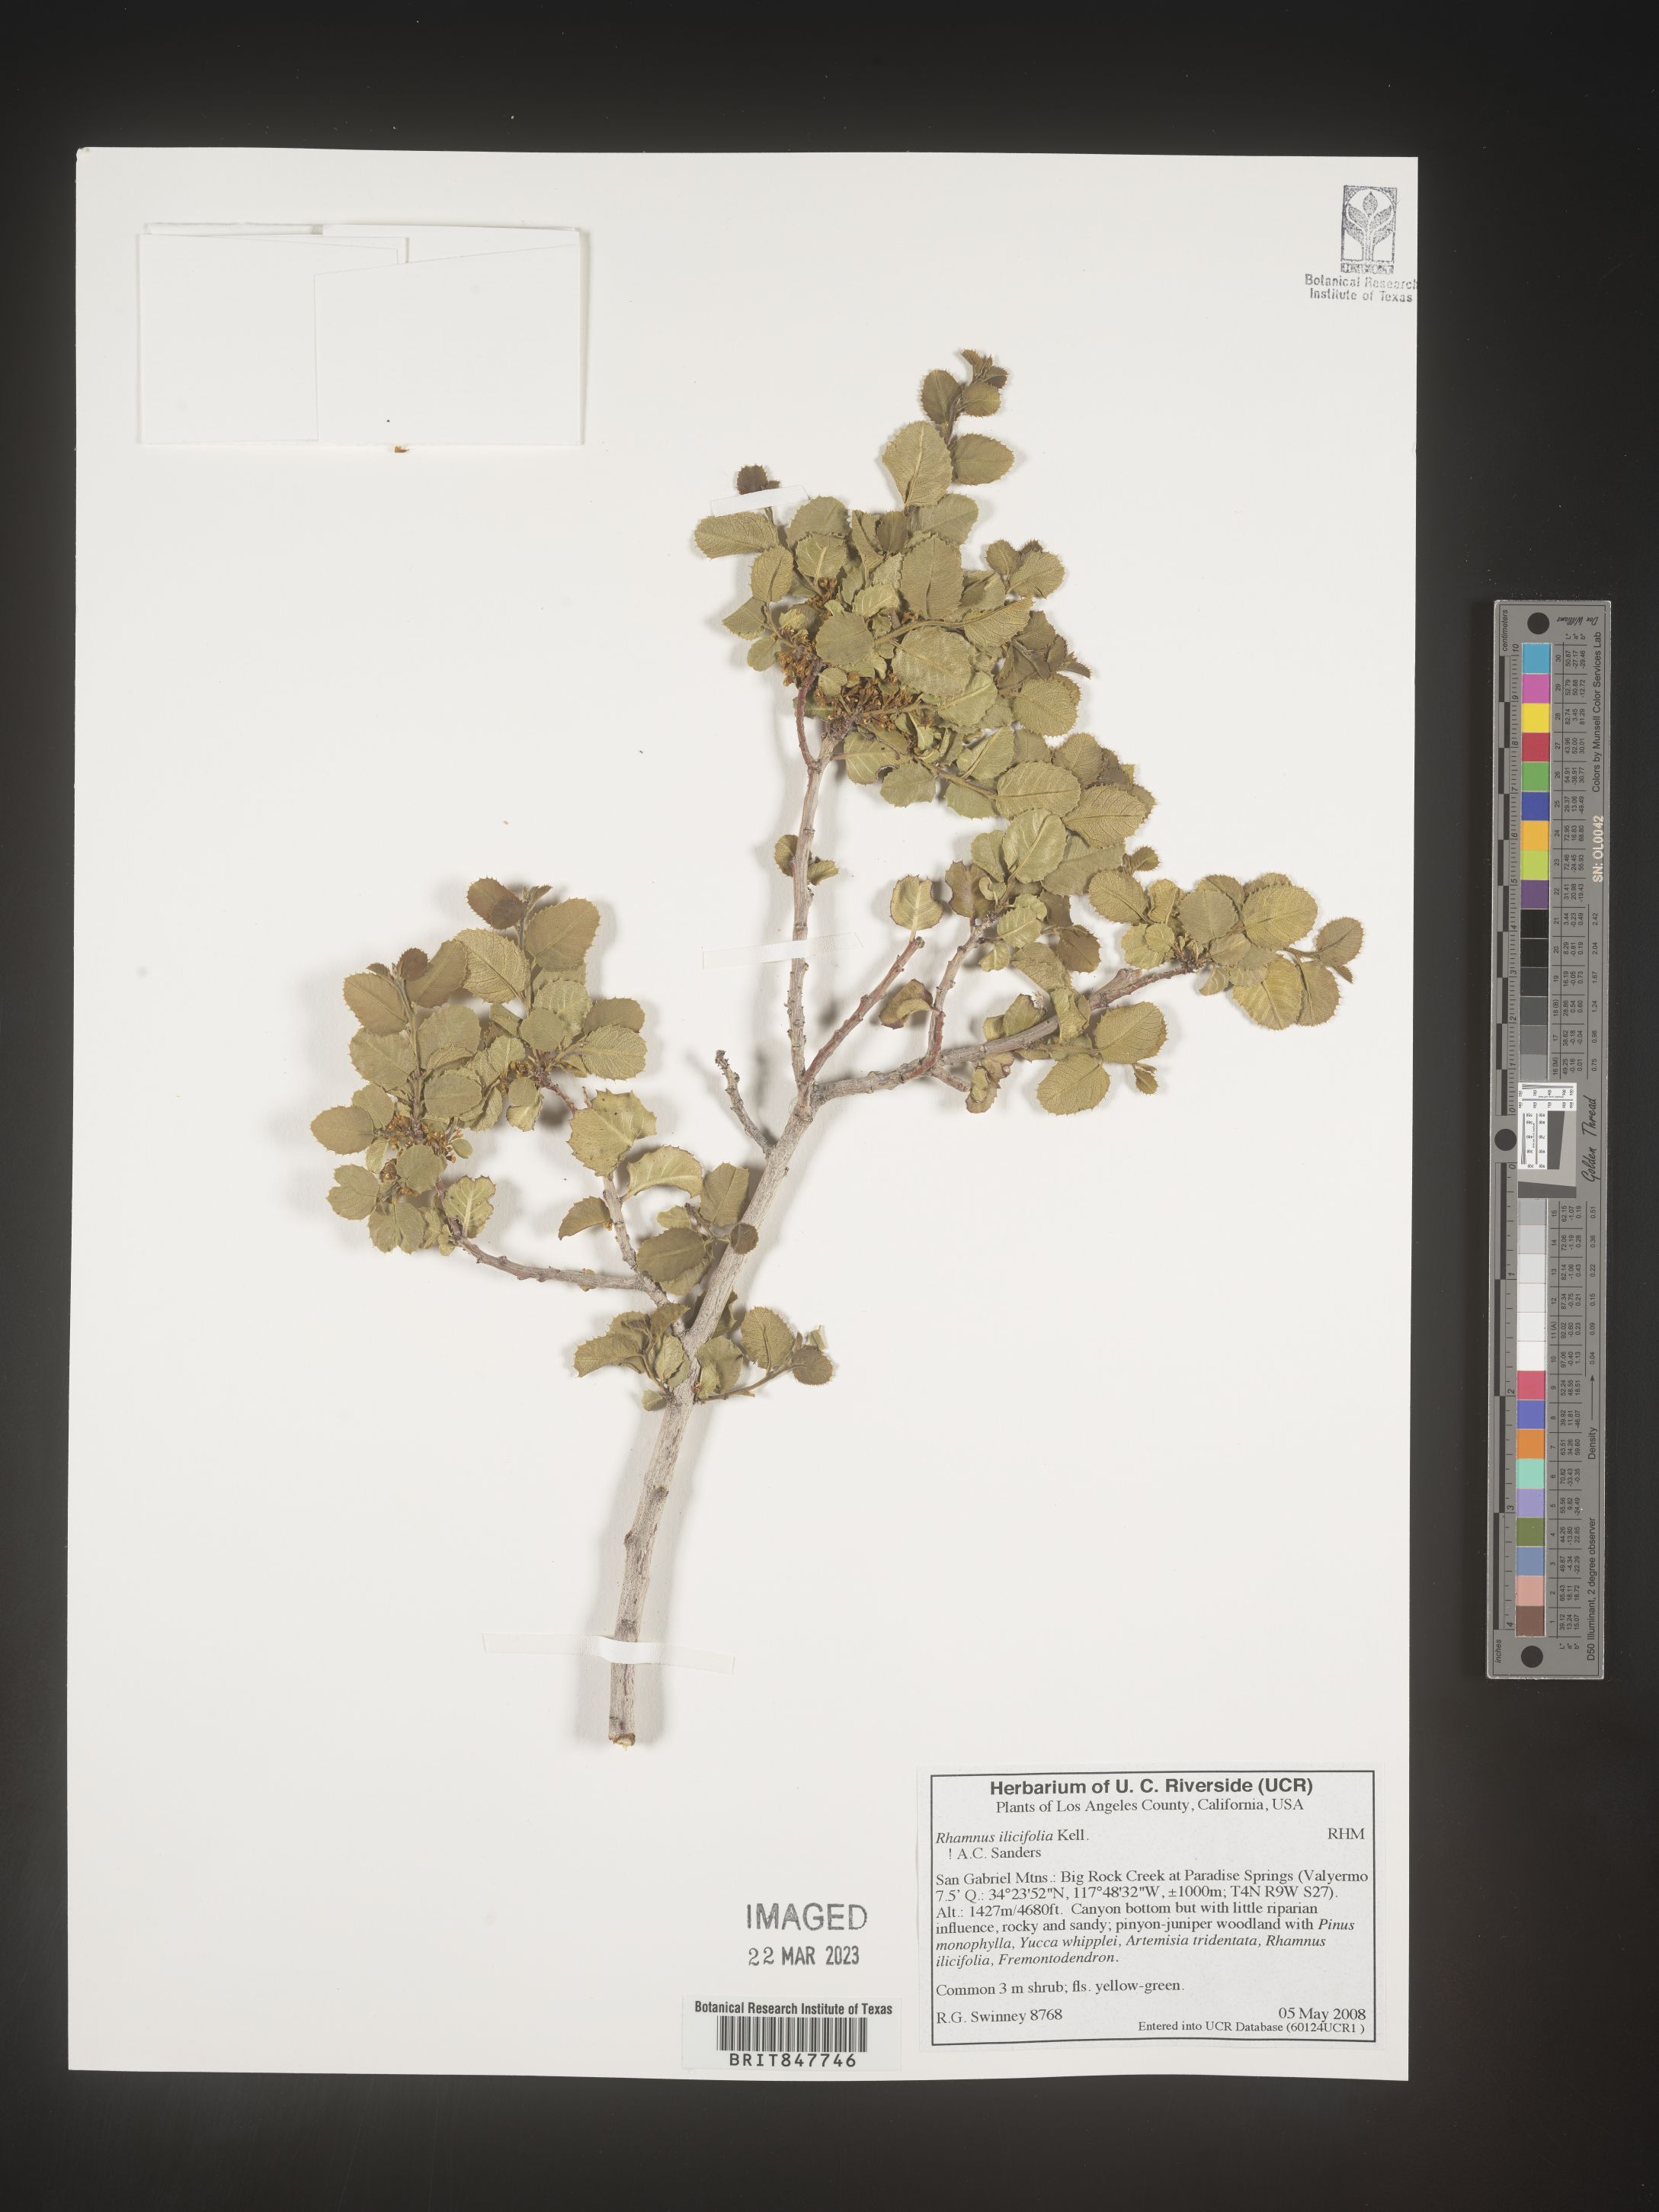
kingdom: Plantae
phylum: Tracheophyta
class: Magnoliopsida
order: Rosales
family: Rhamnaceae
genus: Endotropis
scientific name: Endotropis crocea
